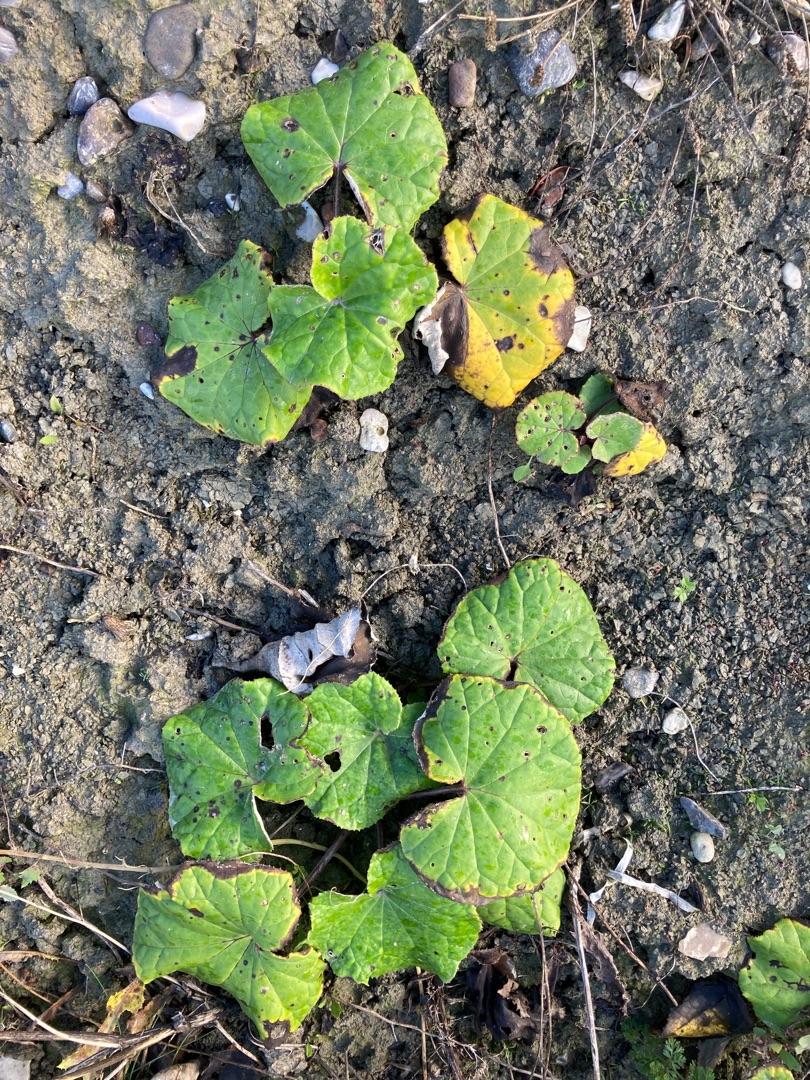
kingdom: Plantae
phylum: Tracheophyta
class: Magnoliopsida
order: Asterales
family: Asteraceae
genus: Tussilago
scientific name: Tussilago farfara
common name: Følfod
